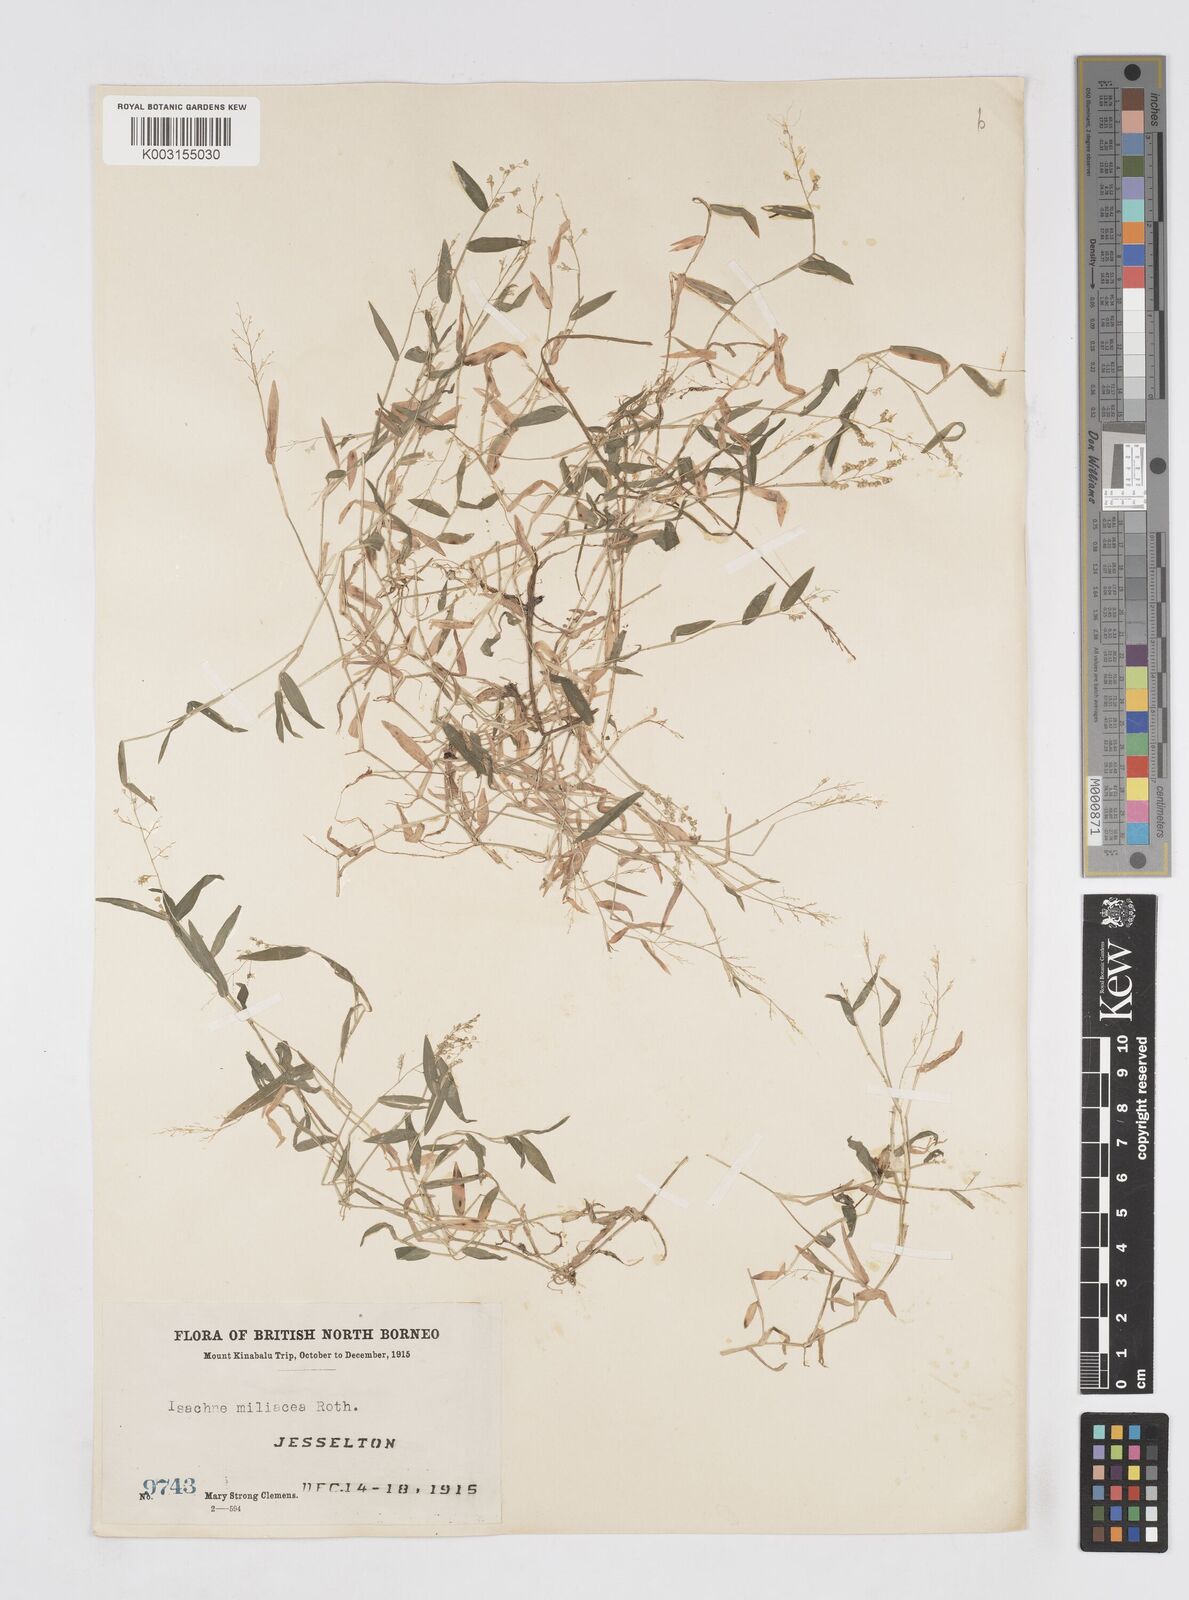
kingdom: Plantae
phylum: Tracheophyta
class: Liliopsida
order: Poales
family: Poaceae
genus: Isachne
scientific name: Isachne globosa
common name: Swamp millet
